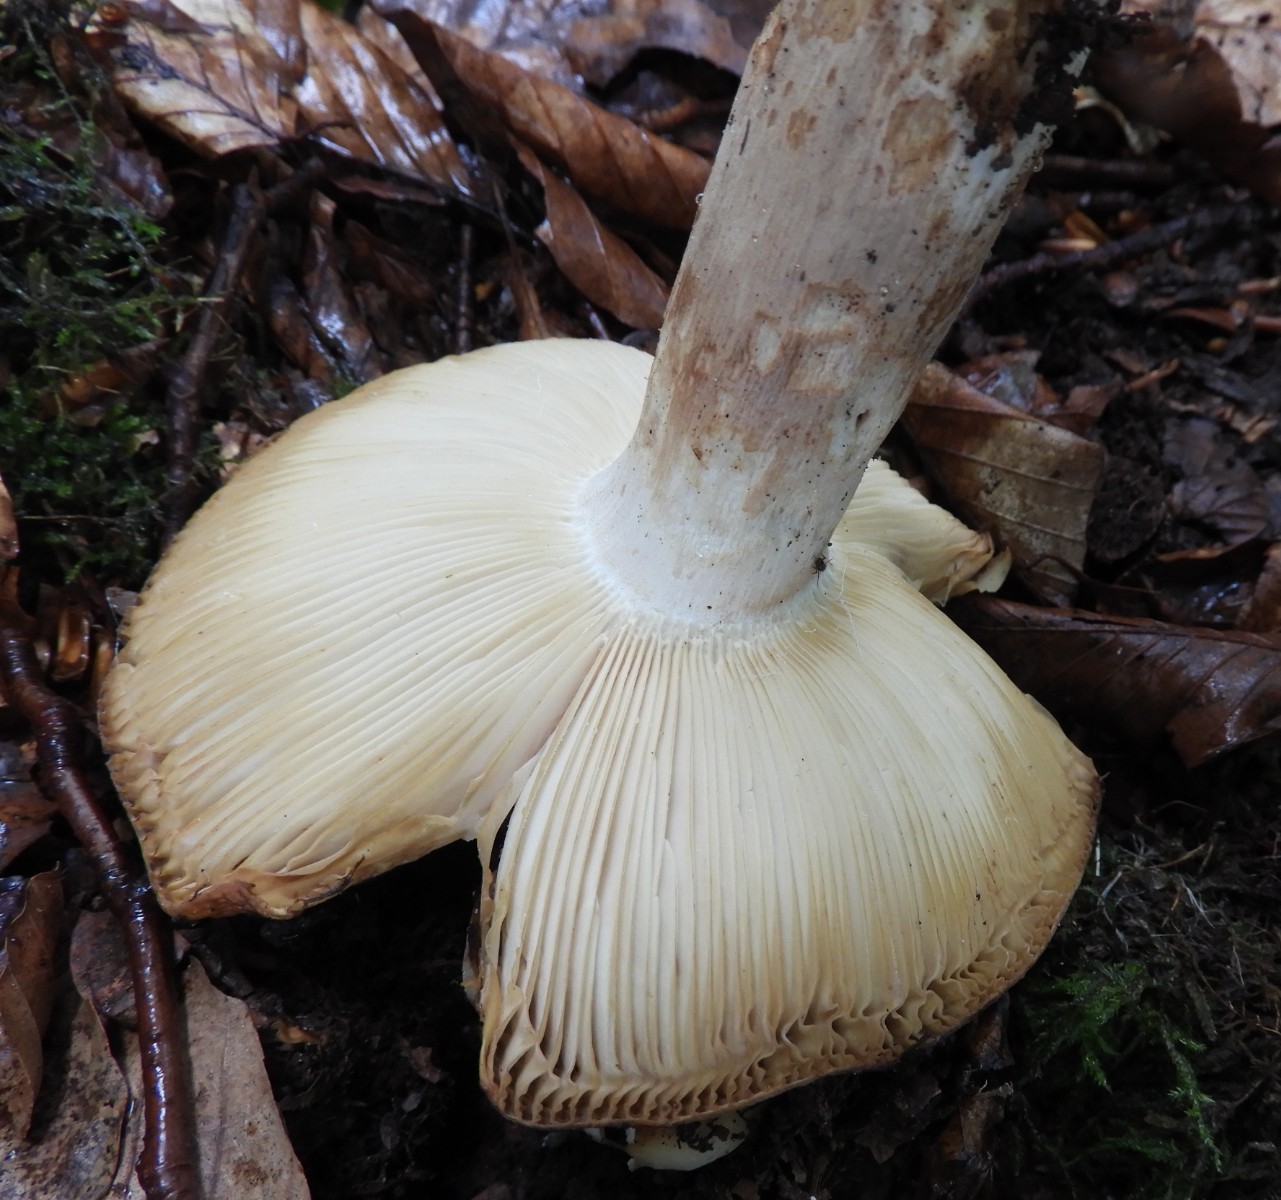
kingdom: Fungi
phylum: Basidiomycota
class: Agaricomycetes
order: Russulales
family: Russulaceae
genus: Russula
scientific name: Russula grata
